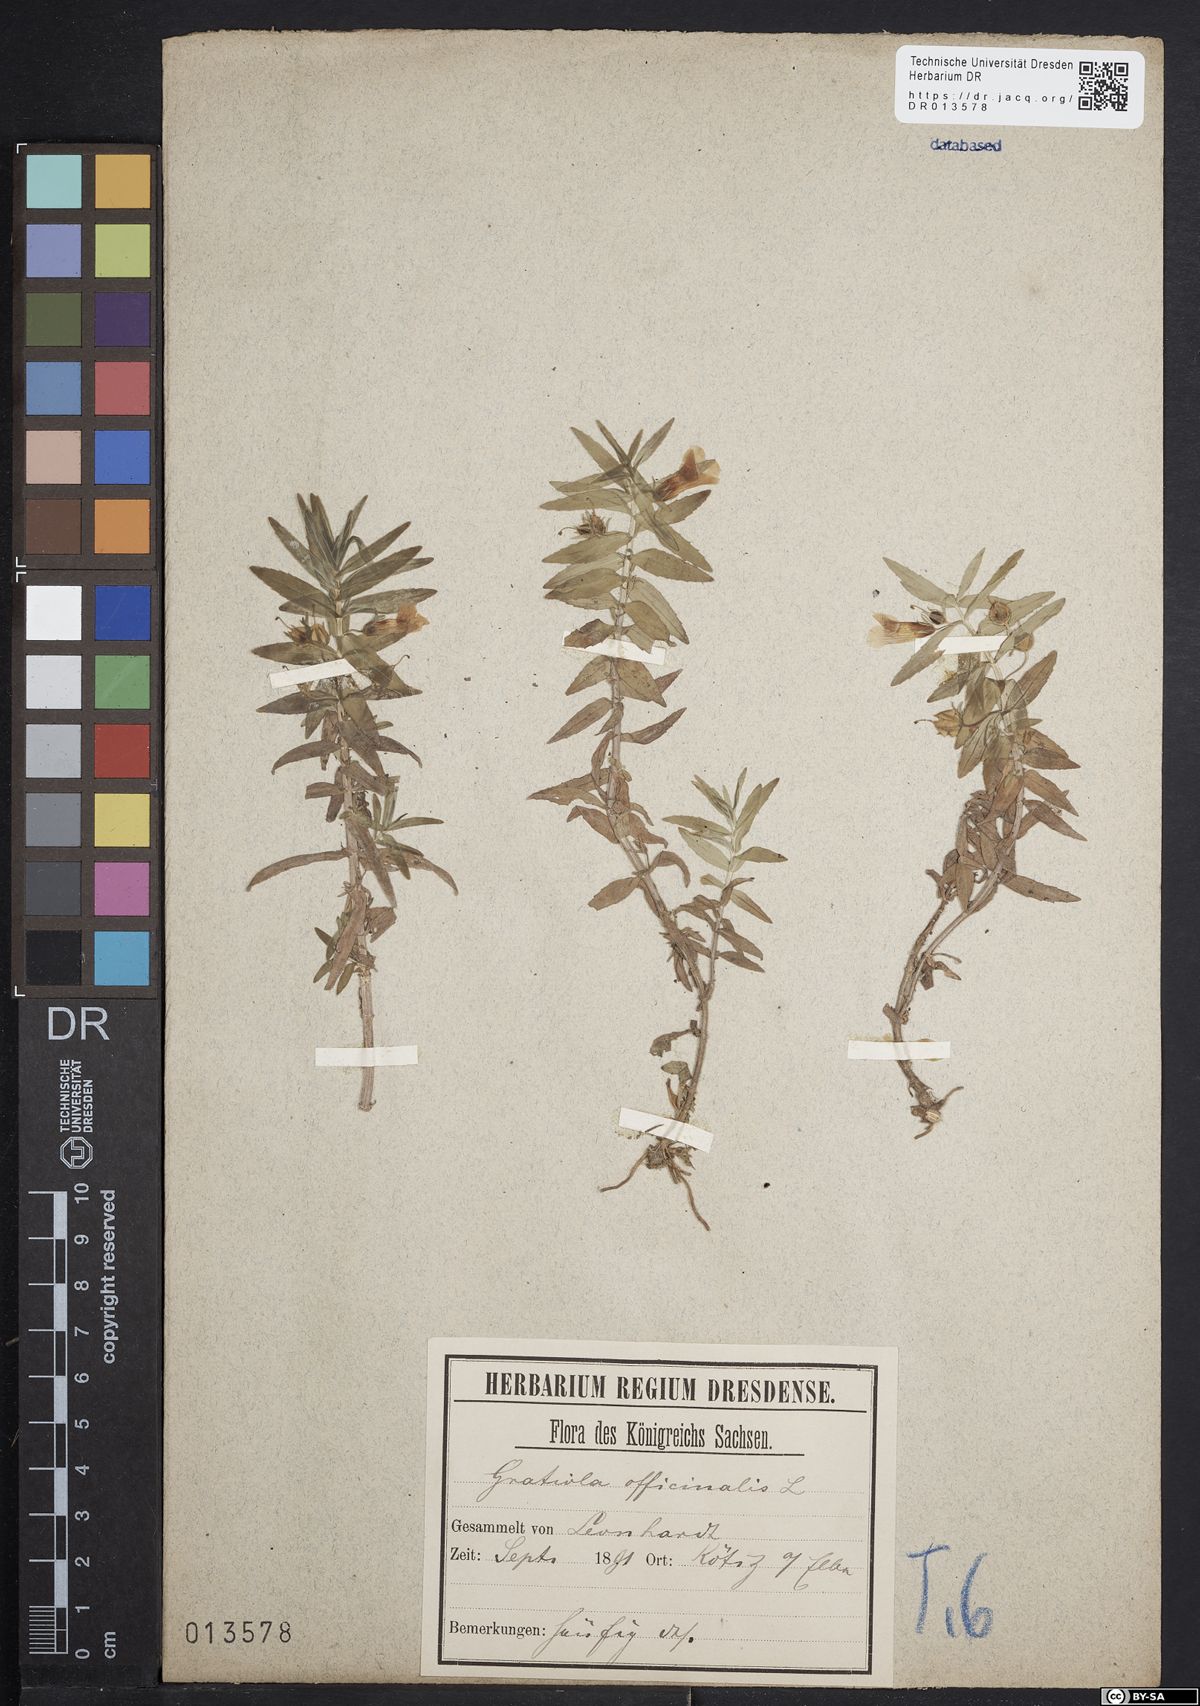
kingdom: Plantae
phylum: Tracheophyta
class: Magnoliopsida
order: Lamiales
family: Plantaginaceae
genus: Gratiola
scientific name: Gratiola officinalis
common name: Gratiola
